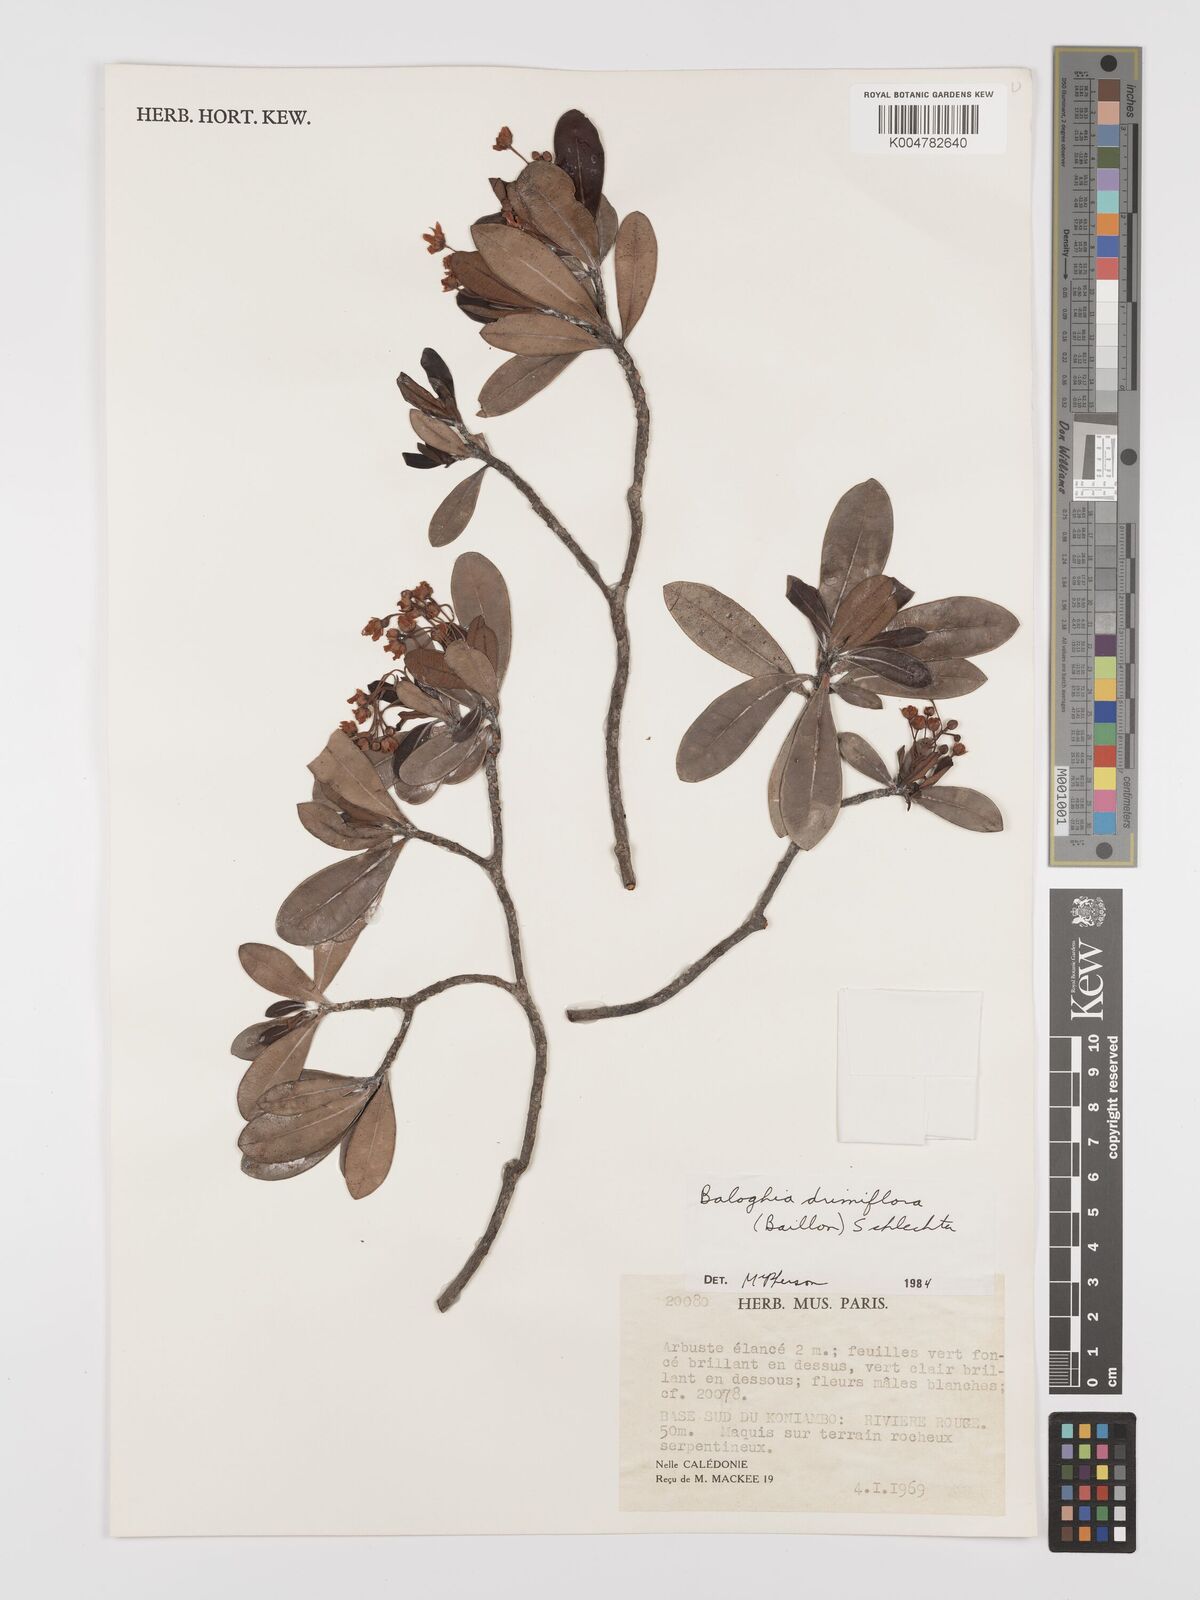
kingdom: Plantae
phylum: Tracheophyta
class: Magnoliopsida
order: Malpighiales
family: Euphorbiaceae
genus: Baloghia
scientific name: Baloghia drimiflora
